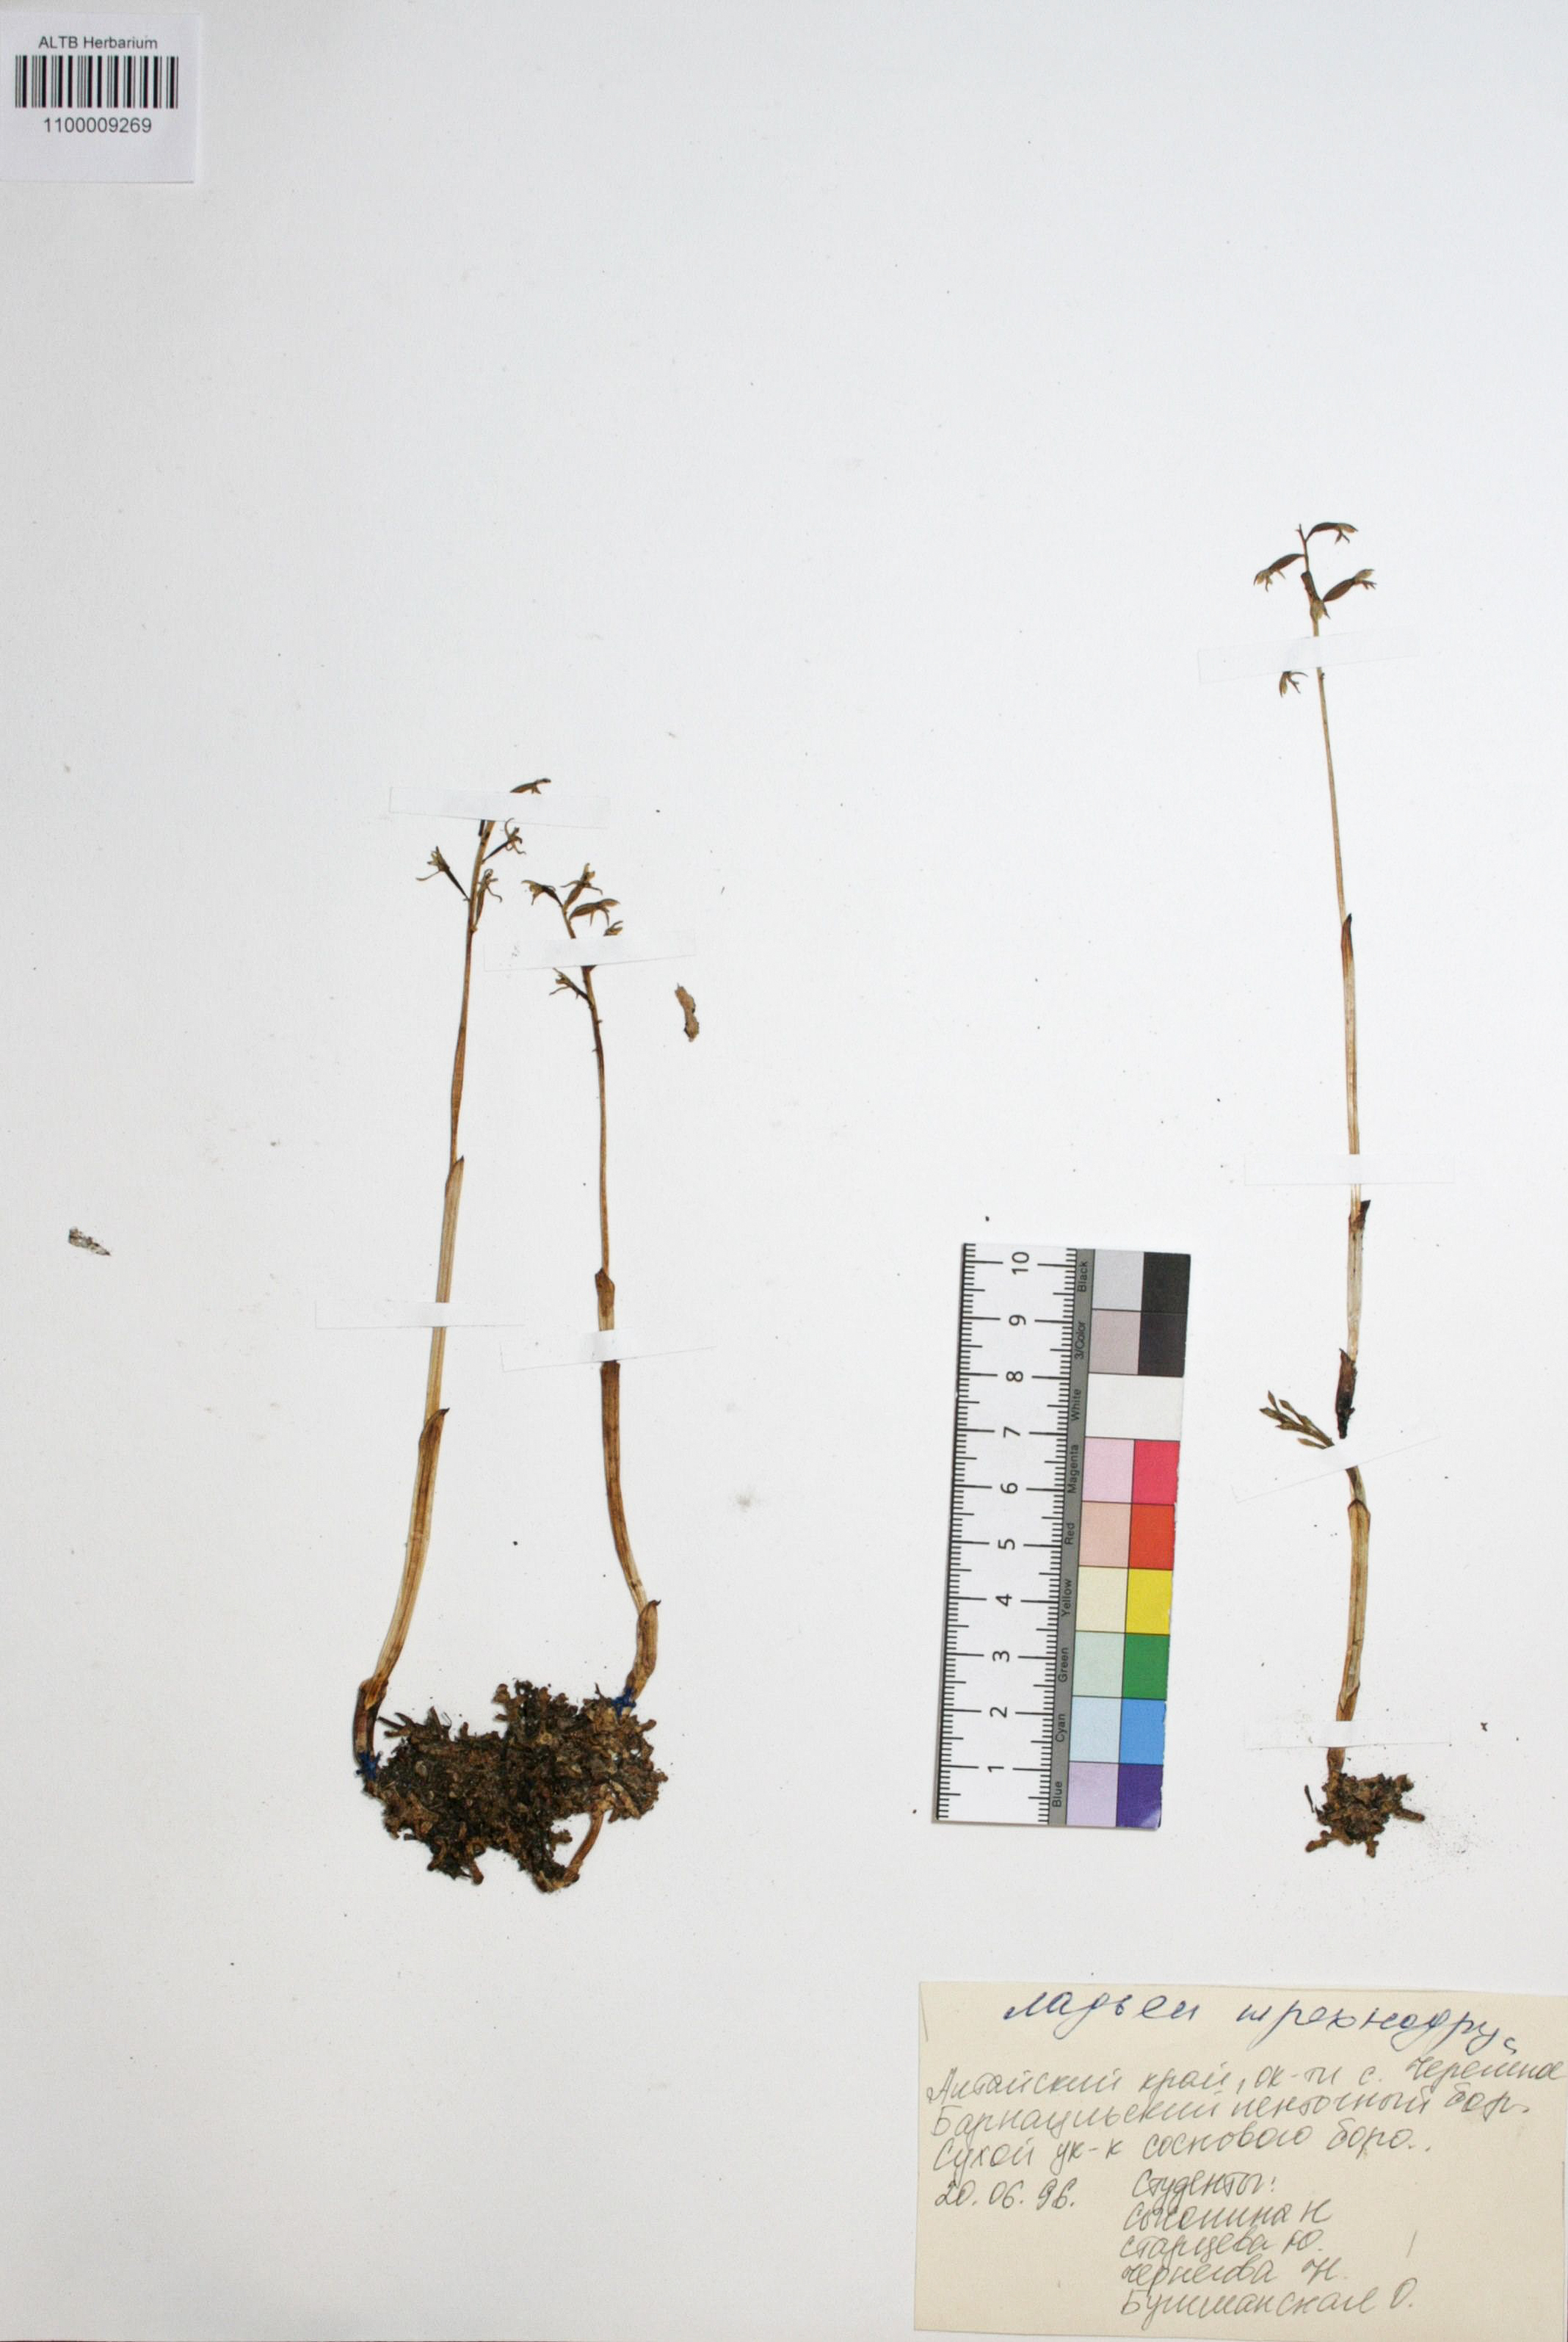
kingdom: Plantae
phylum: Tracheophyta
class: Liliopsida
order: Asparagales
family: Orchidaceae
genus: Corallorhiza
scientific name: Corallorhiza trifida
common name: Yellow coralroot
